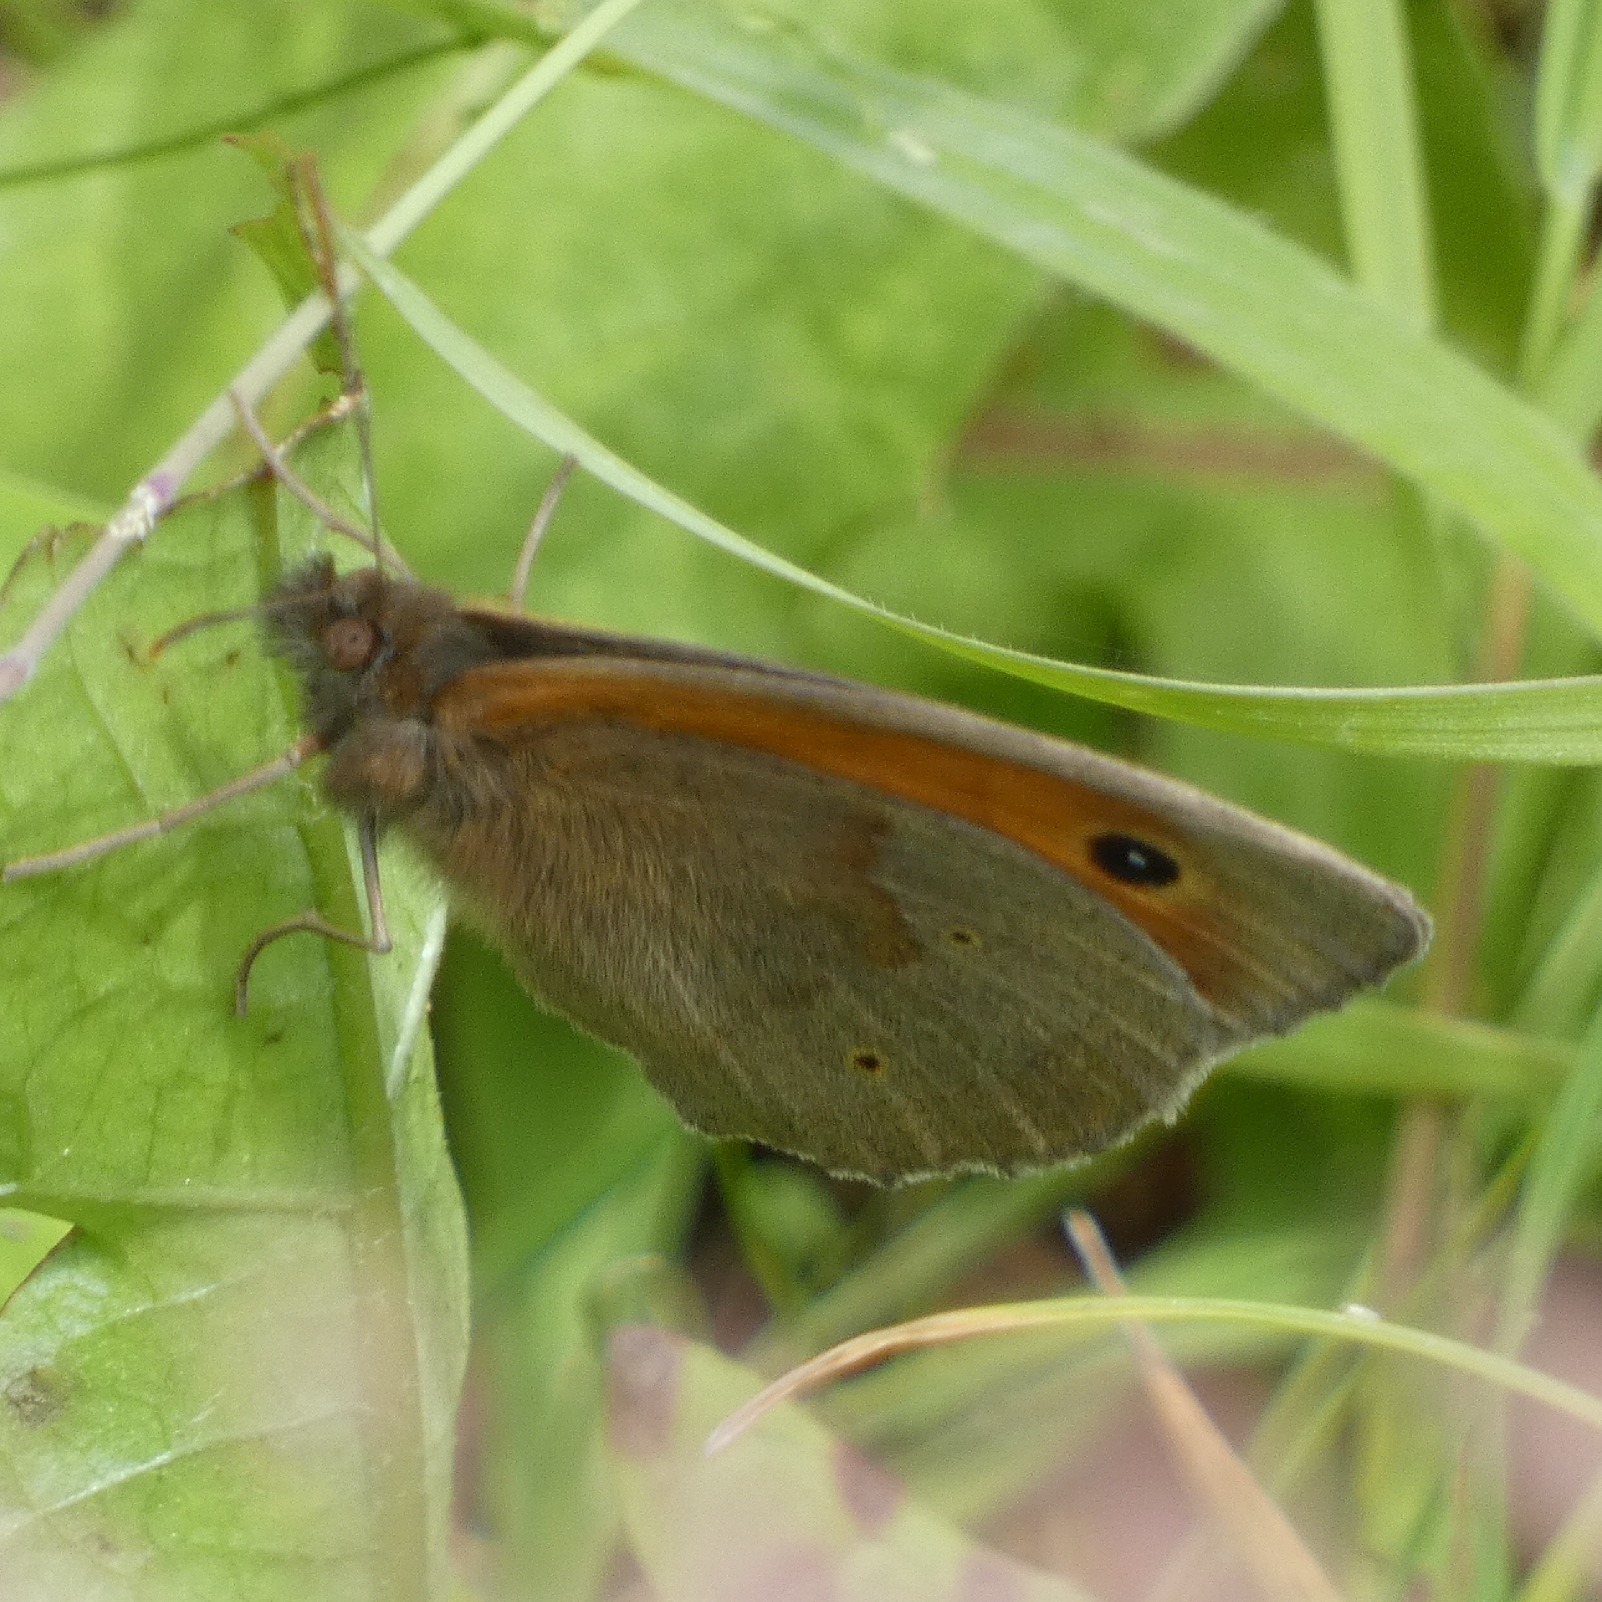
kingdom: Animalia
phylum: Arthropoda
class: Insecta
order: Lepidoptera
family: Nymphalidae
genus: Maniola
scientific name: Maniola jurtina
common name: Græsrandøje
